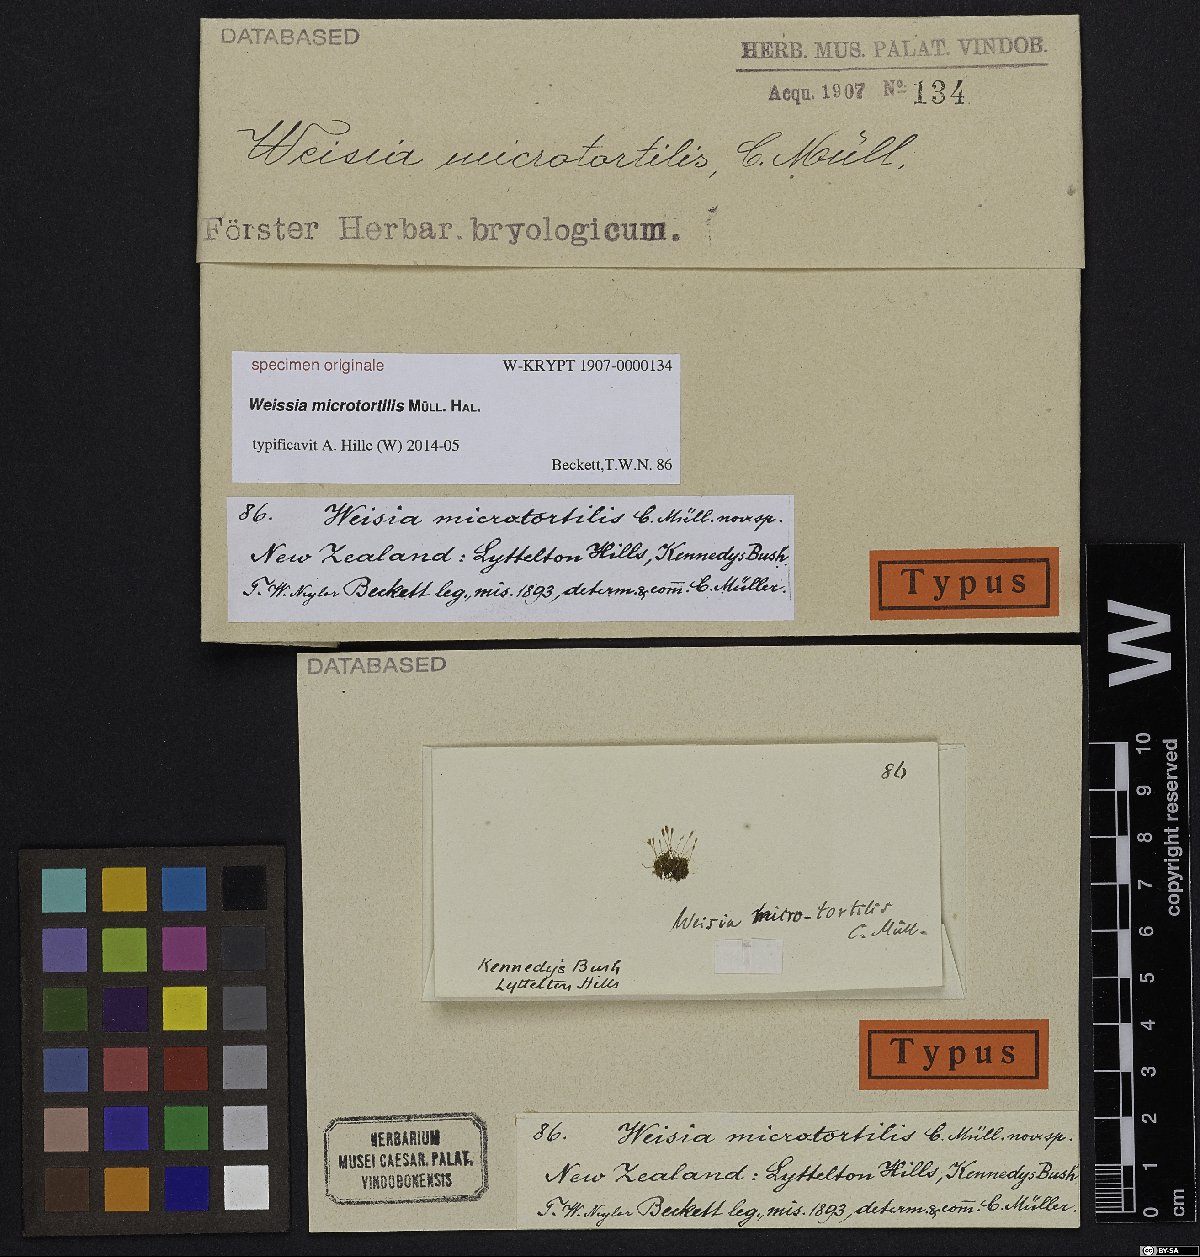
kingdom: Plantae
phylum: Bryophyta
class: Bryopsida
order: Pottiales
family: Pottiaceae
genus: Weissia
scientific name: Weissia
